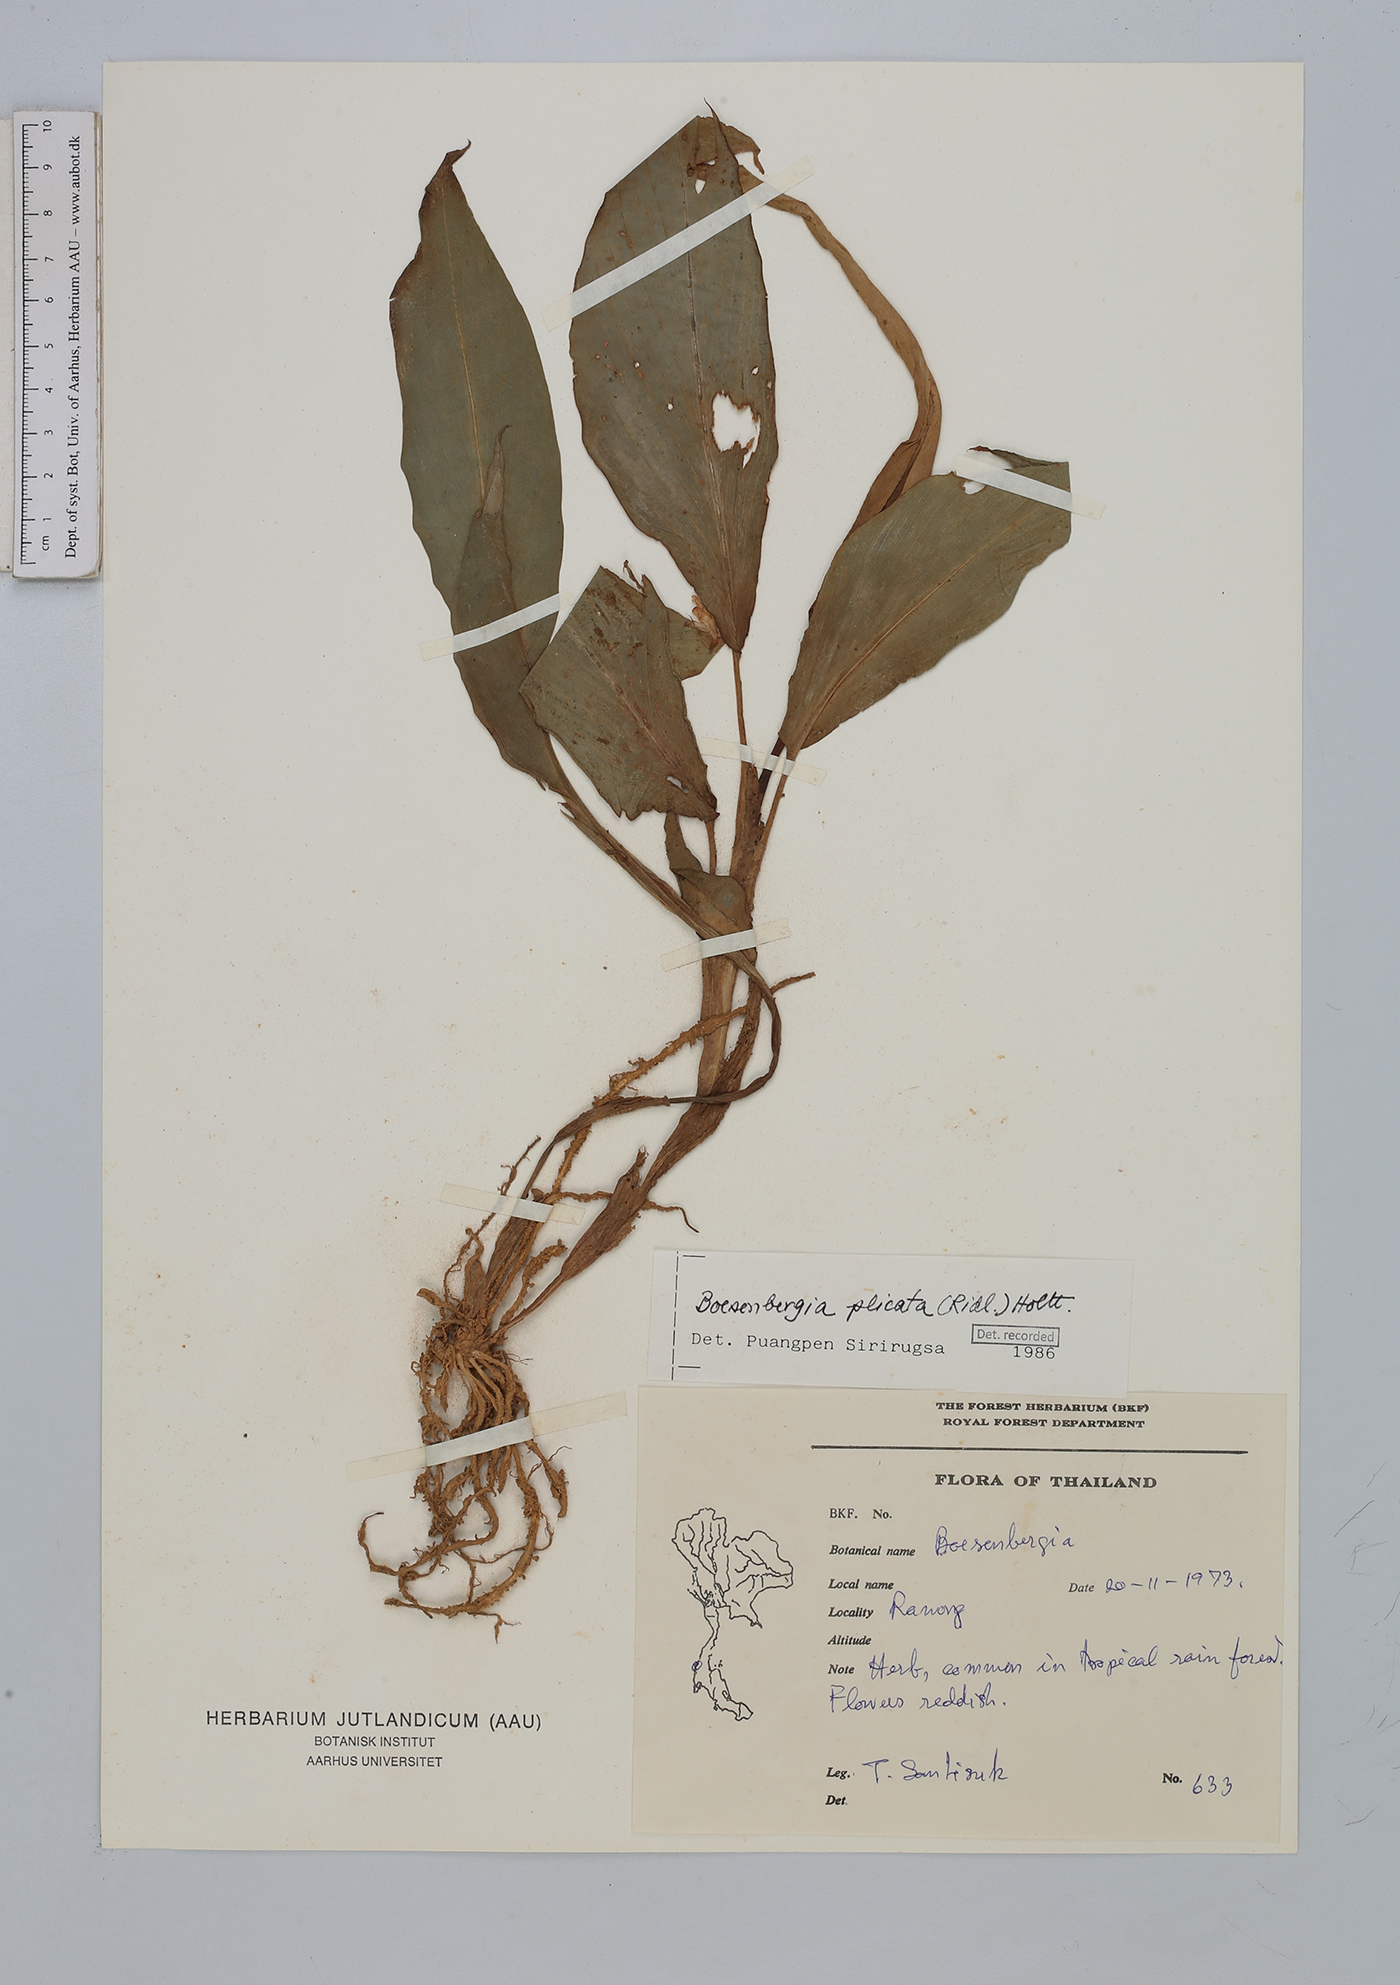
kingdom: Plantae
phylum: Tracheophyta
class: Liliopsida
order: Zingiberales
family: Zingiberaceae
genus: Boesenbergia
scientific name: Boesenbergia plicata
